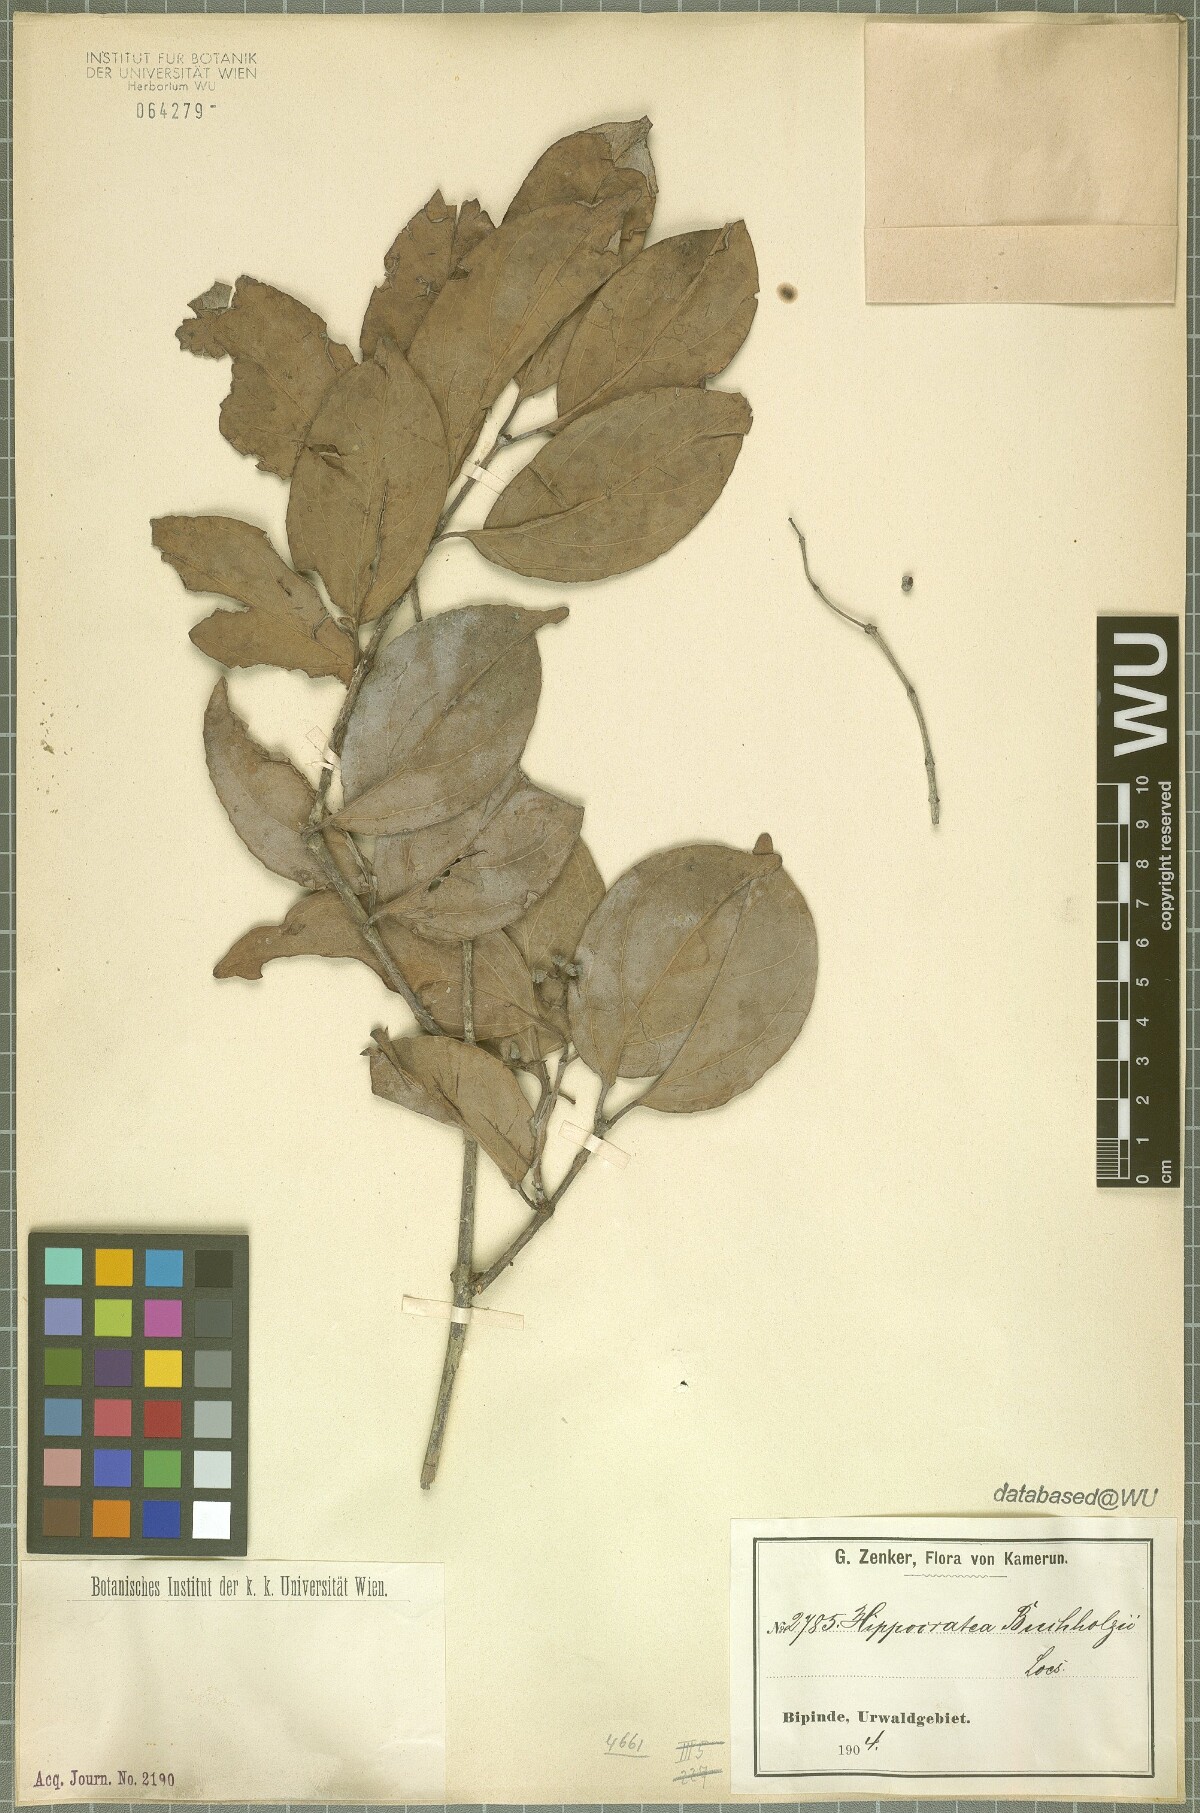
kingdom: Plantae
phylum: Tracheophyta
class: Magnoliopsida
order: Celastrales
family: Celastraceae
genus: Apodostigma
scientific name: Apodostigma pallens
